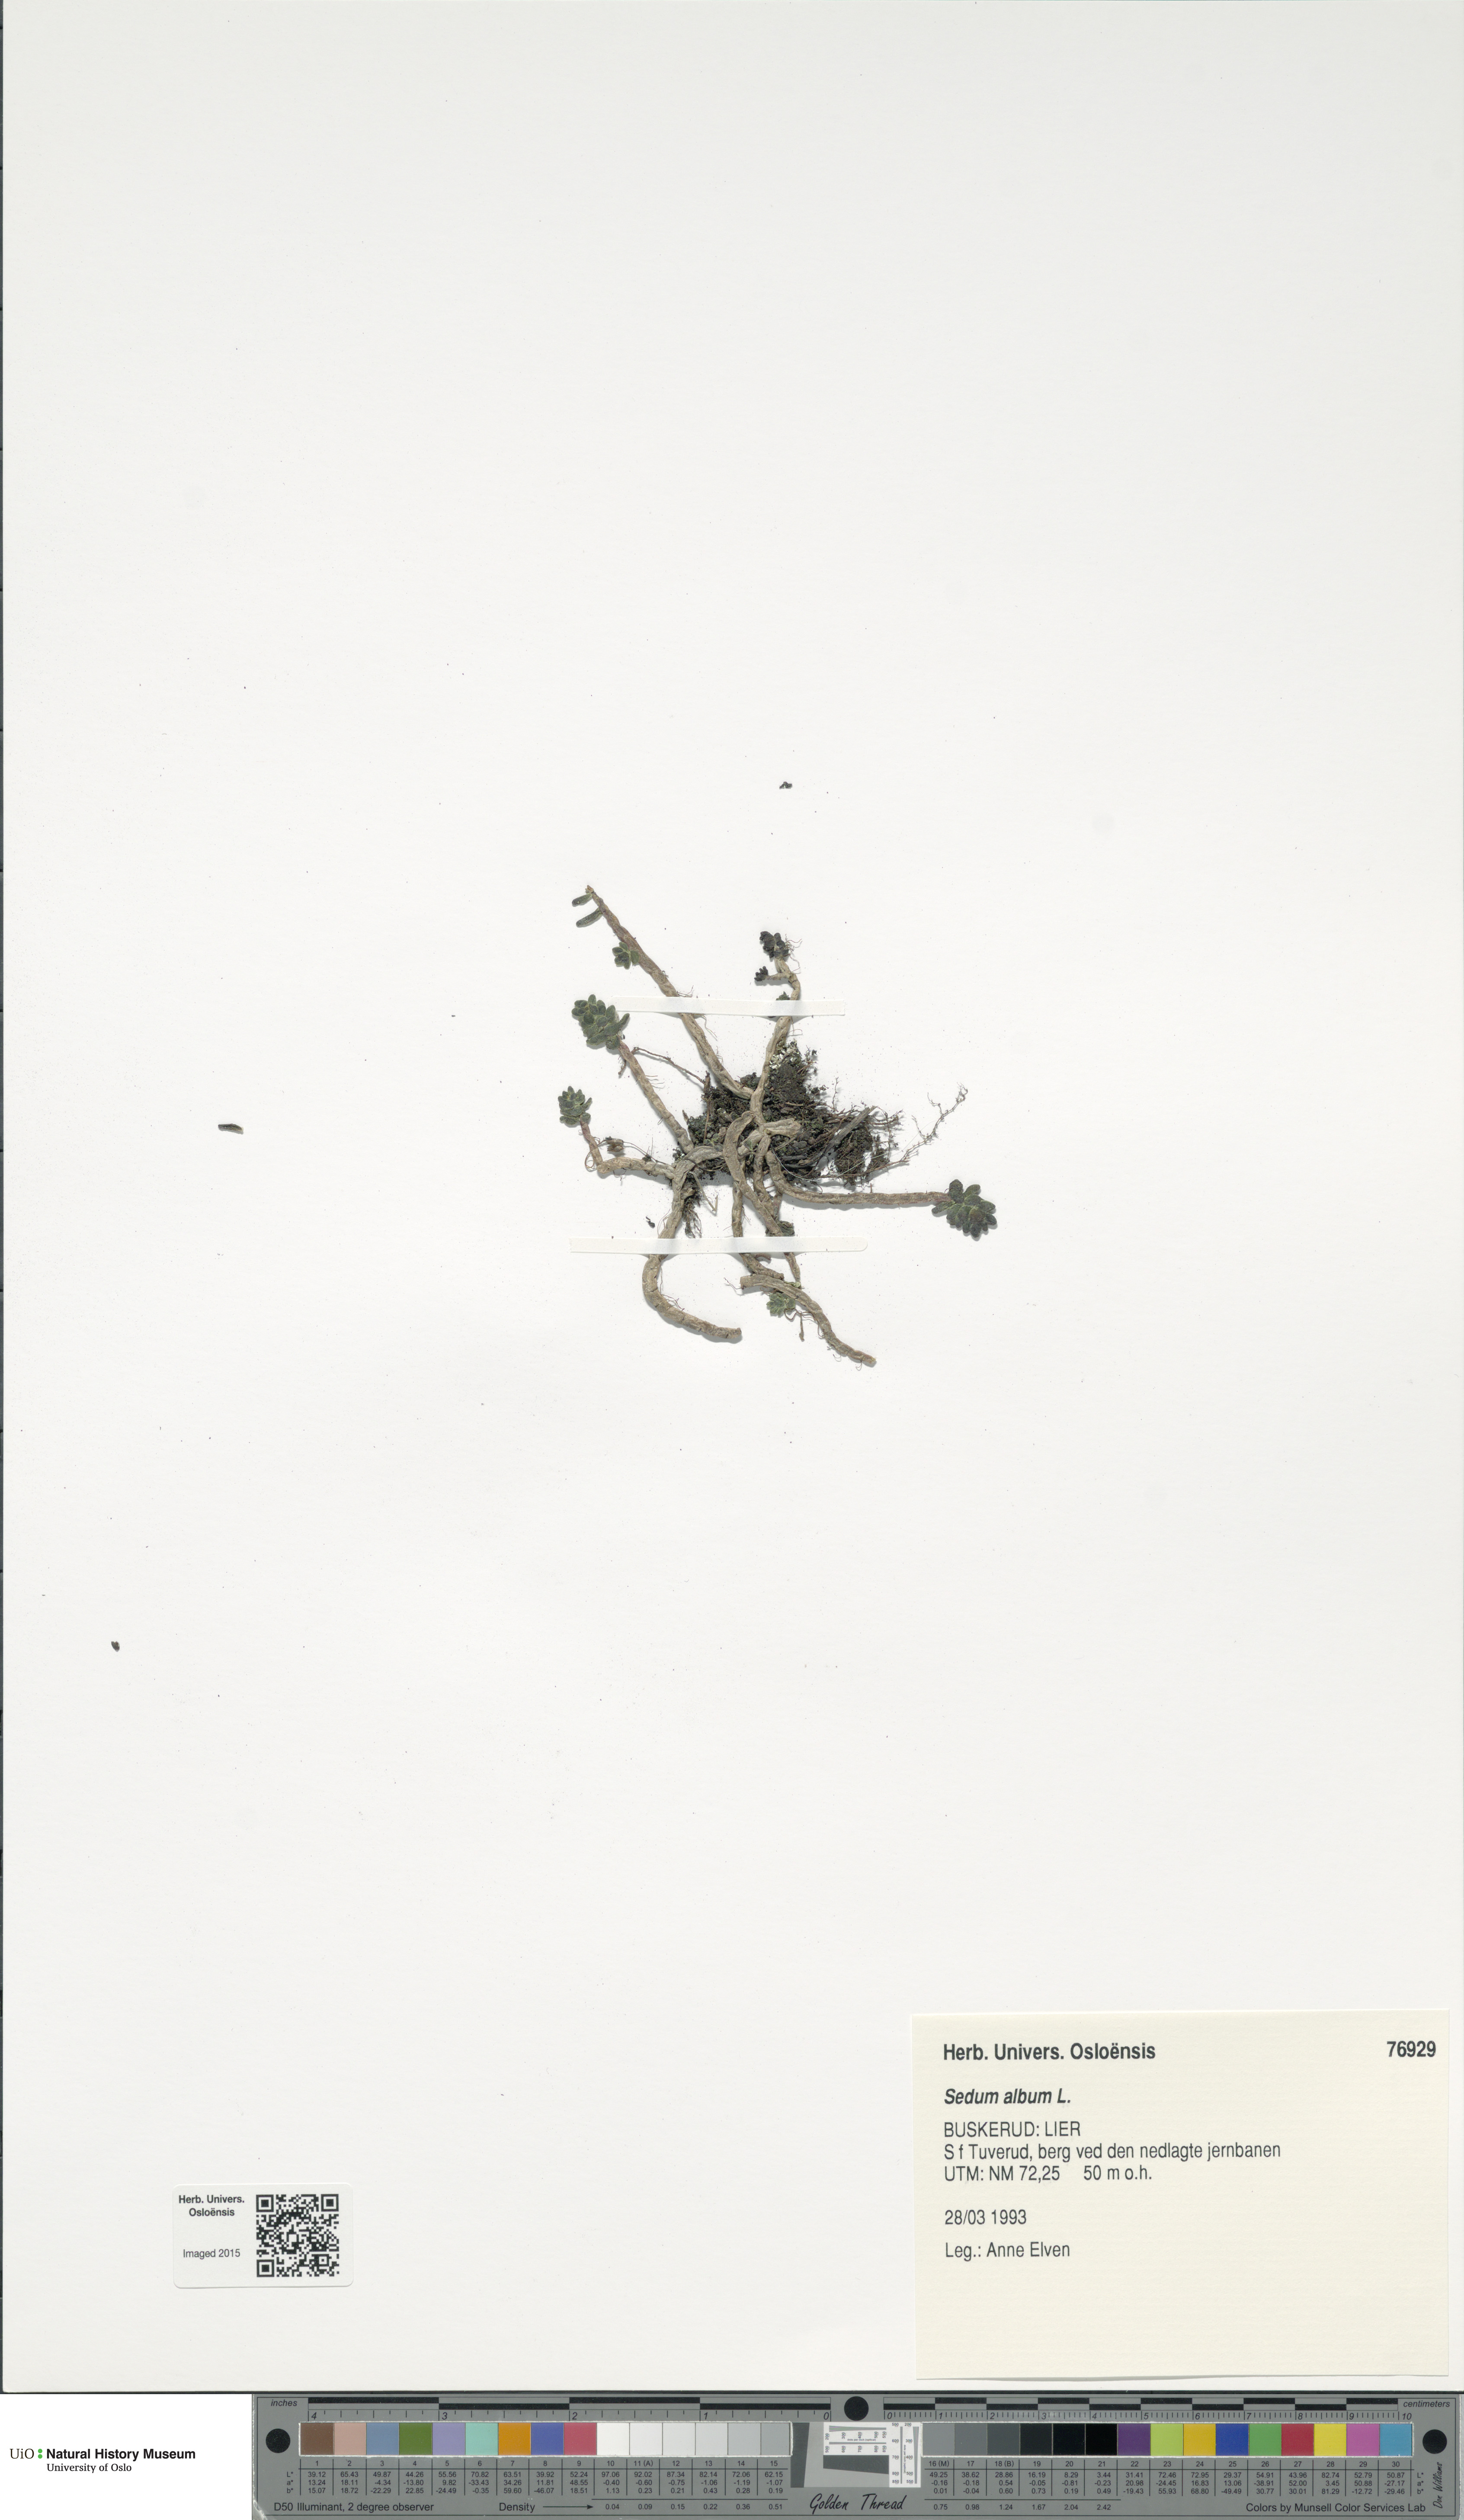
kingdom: Plantae
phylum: Tracheophyta
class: Magnoliopsida
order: Saxifragales
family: Crassulaceae
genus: Sedum
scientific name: Sedum album
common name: White stonecrop
